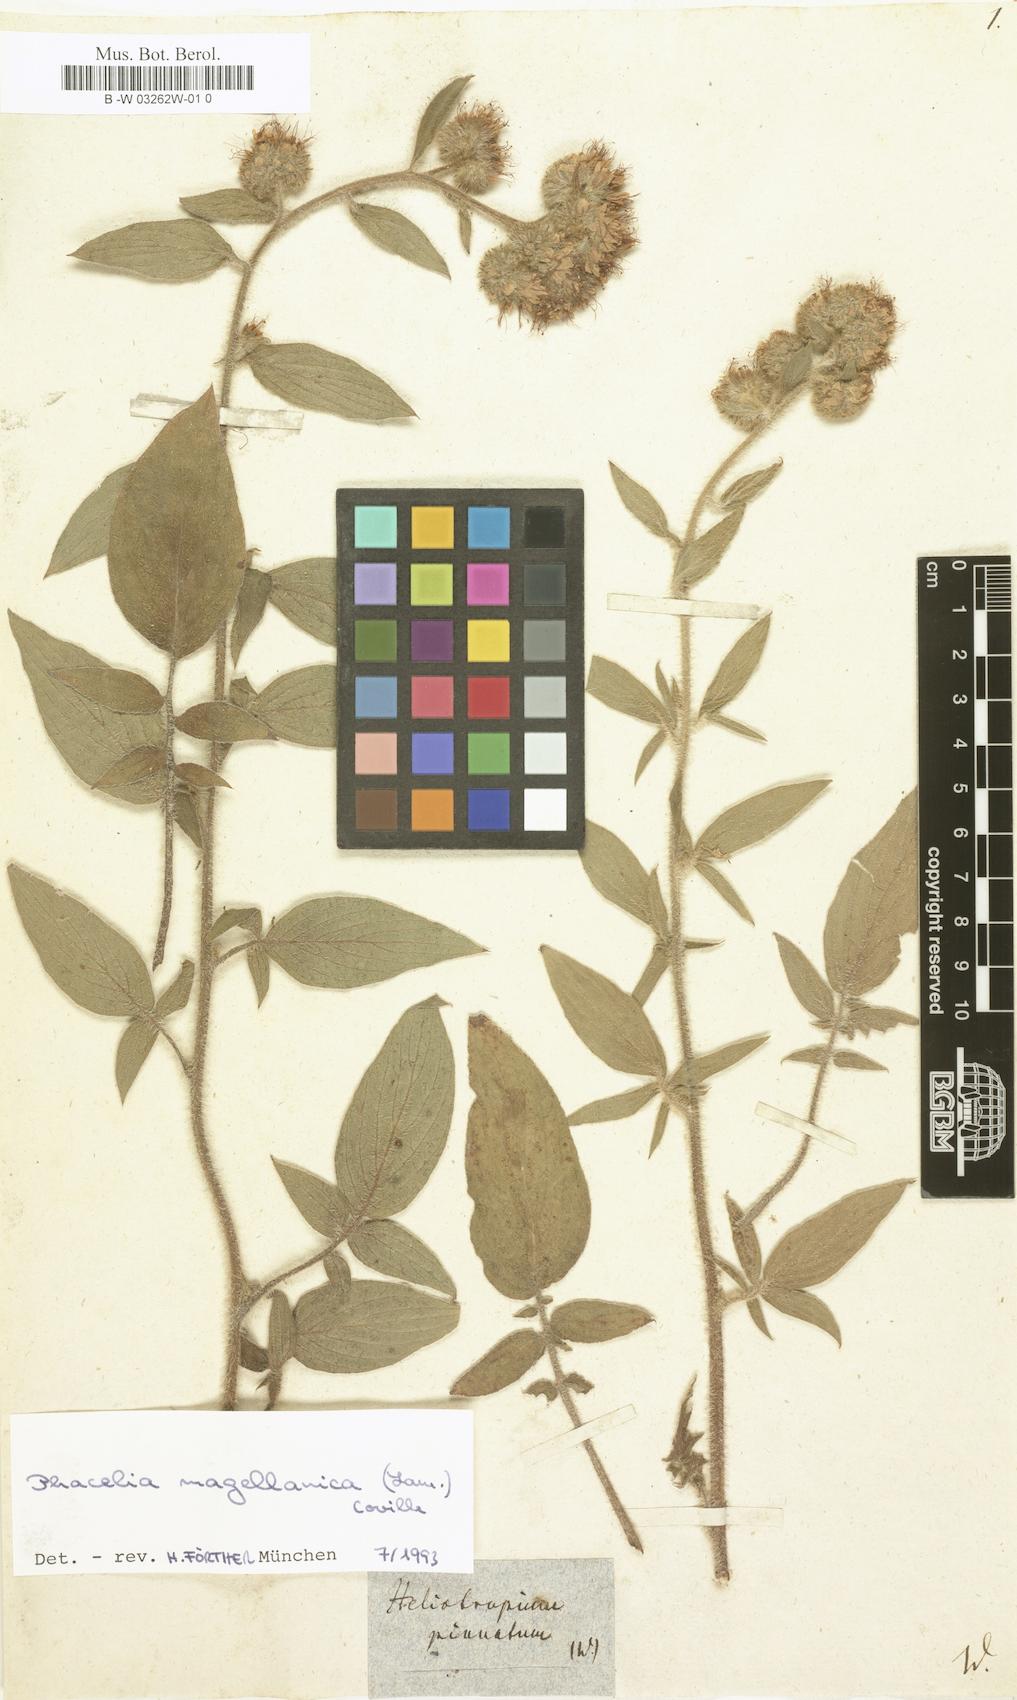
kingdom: Plantae
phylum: Tracheophyta
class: Magnoliopsida
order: Boraginales
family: Hydrophyllaceae
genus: Phacelia
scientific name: Phacelia secunda
